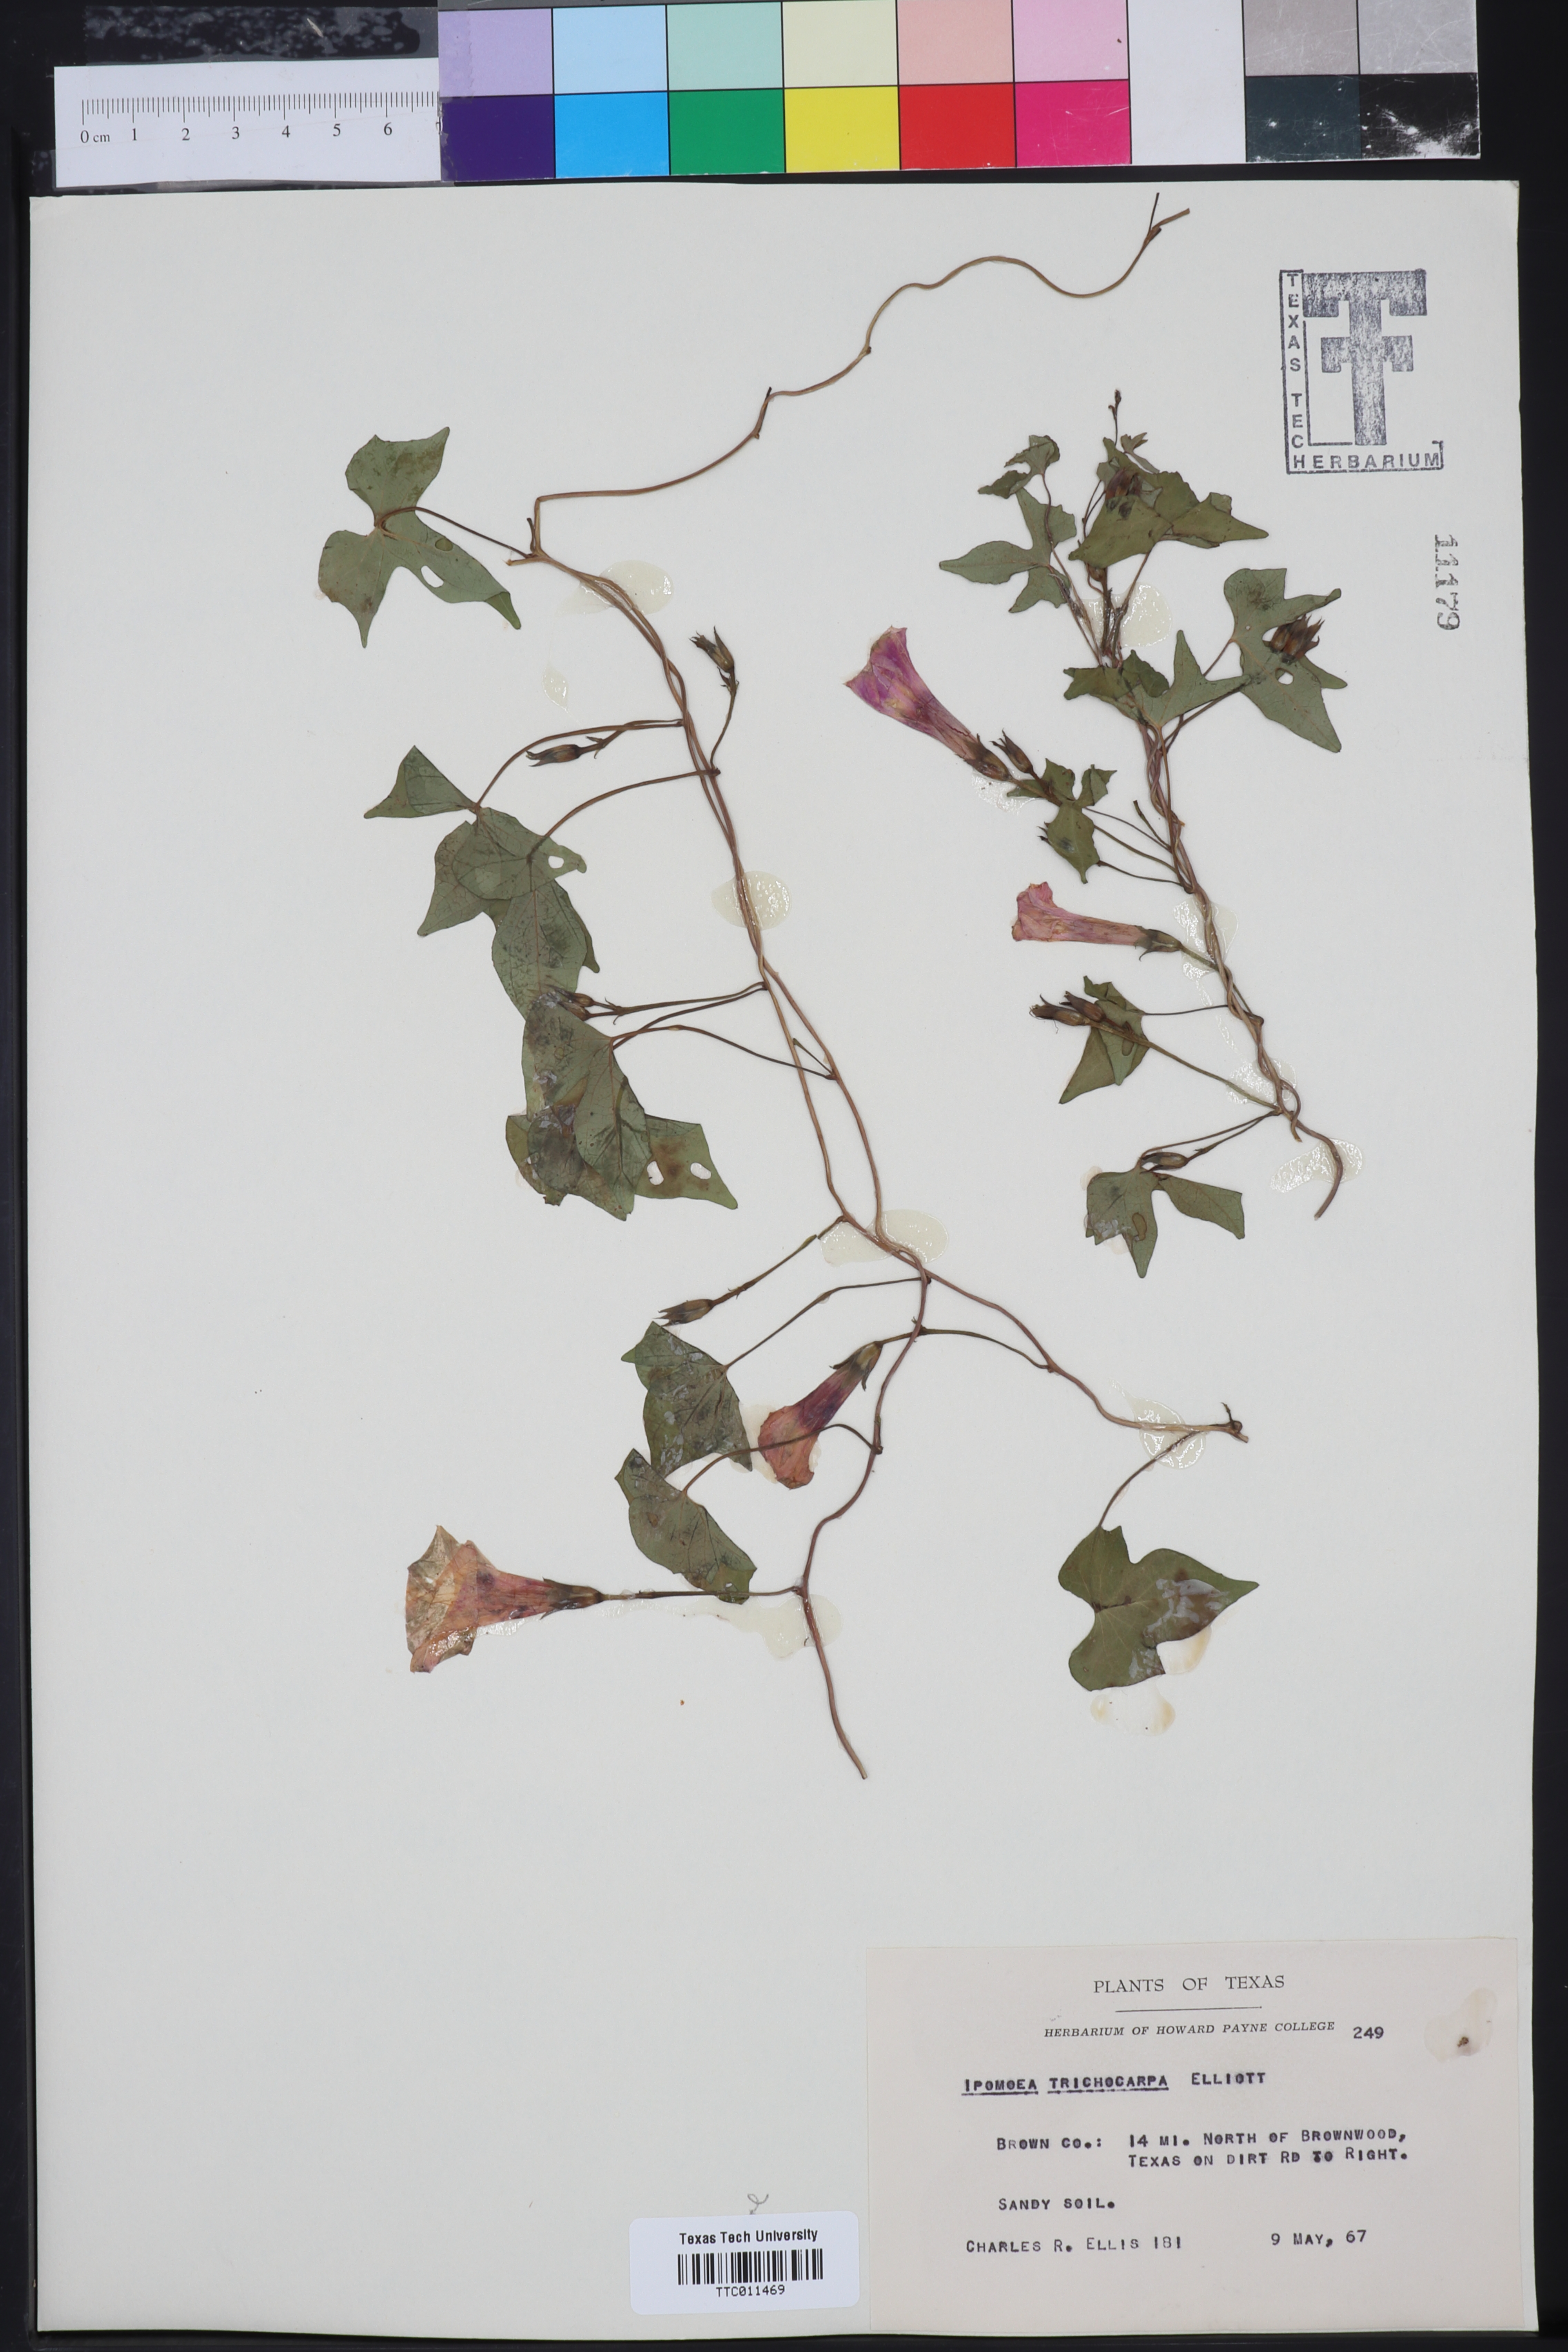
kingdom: Plantae
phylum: Tracheophyta
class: Magnoliopsida
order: Solanales
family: Convolvulaceae
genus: Ipomoea
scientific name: Ipomoea cordatotriloba
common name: Cotton morning glory
